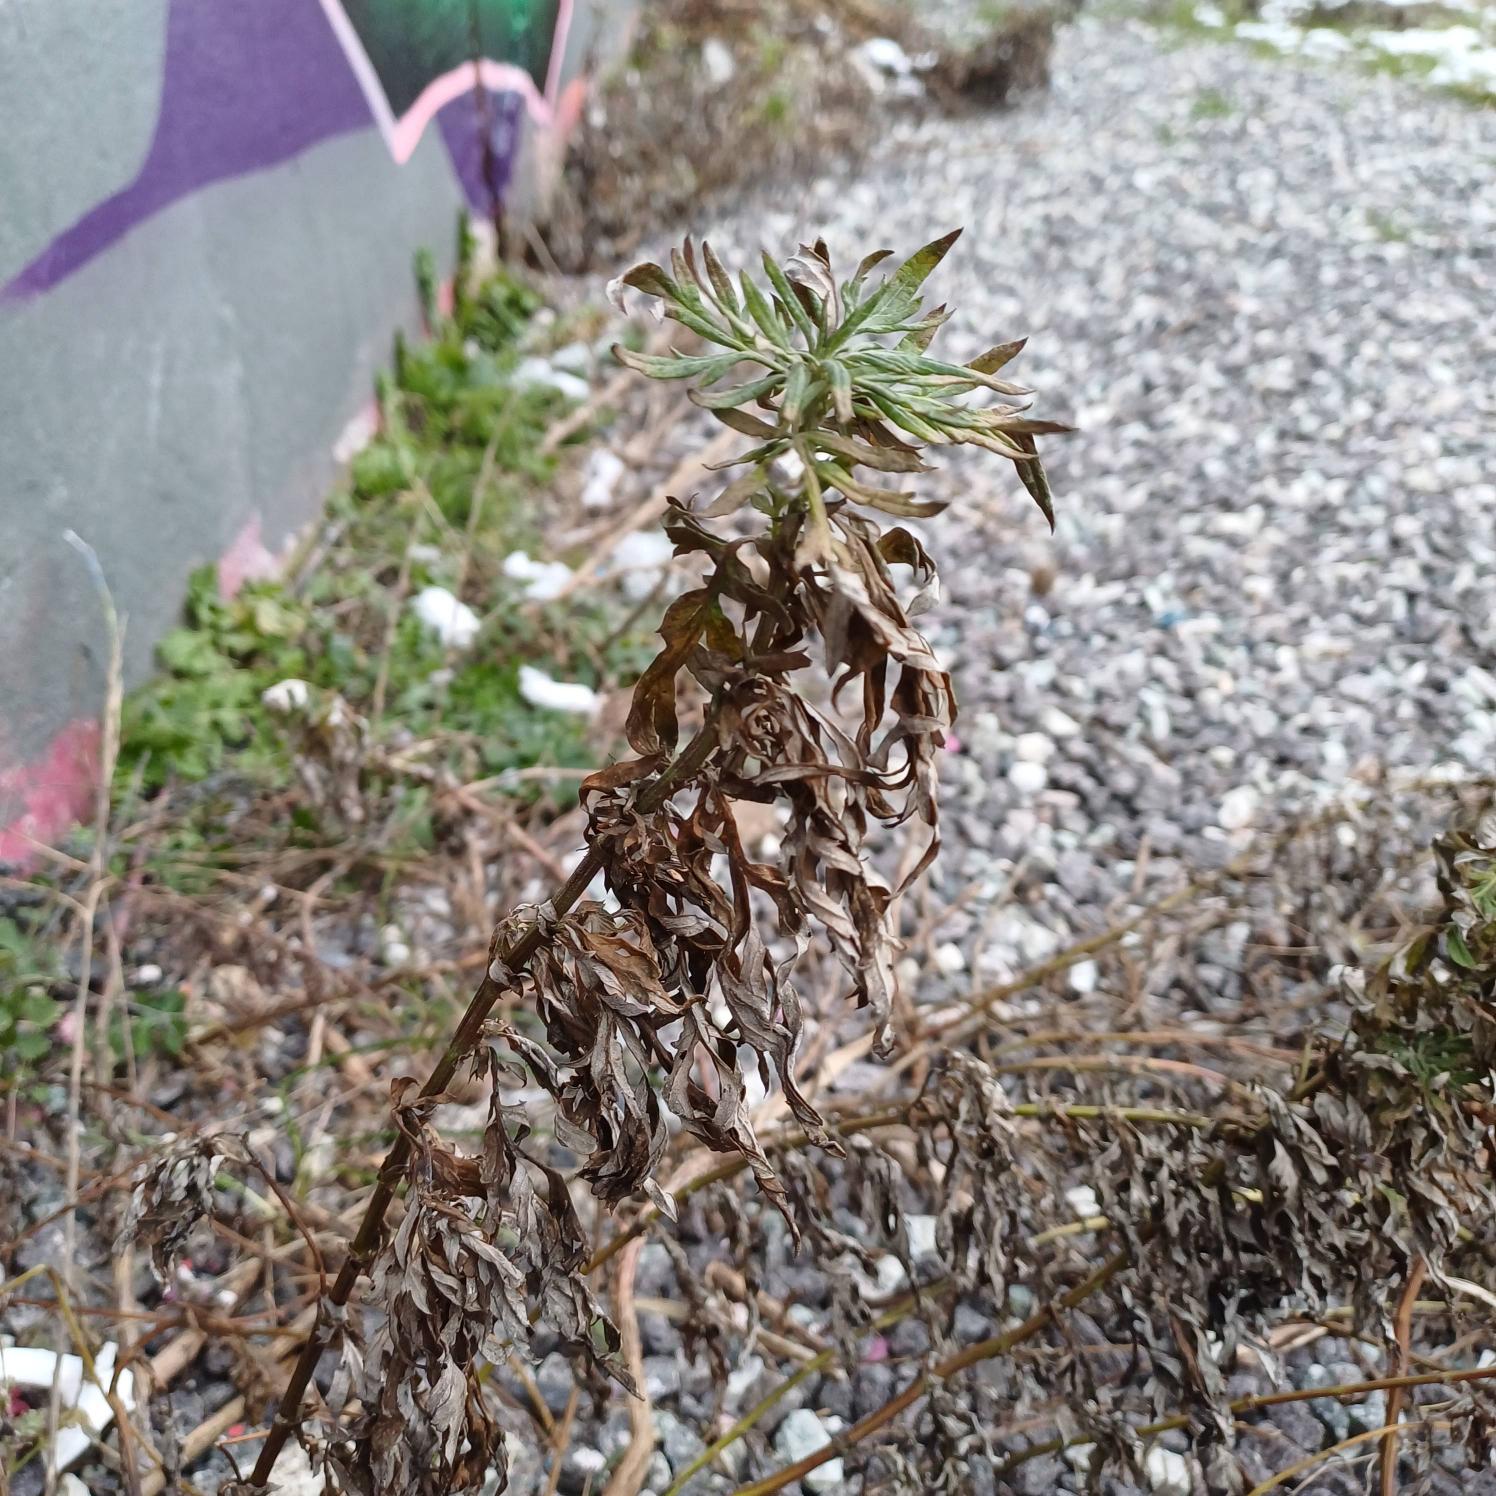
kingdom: Plantae
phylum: Tracheophyta
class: Magnoliopsida
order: Asterales
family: Asteraceae
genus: Artemisia
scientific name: Artemisia vulgaris
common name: Grå-bynke
